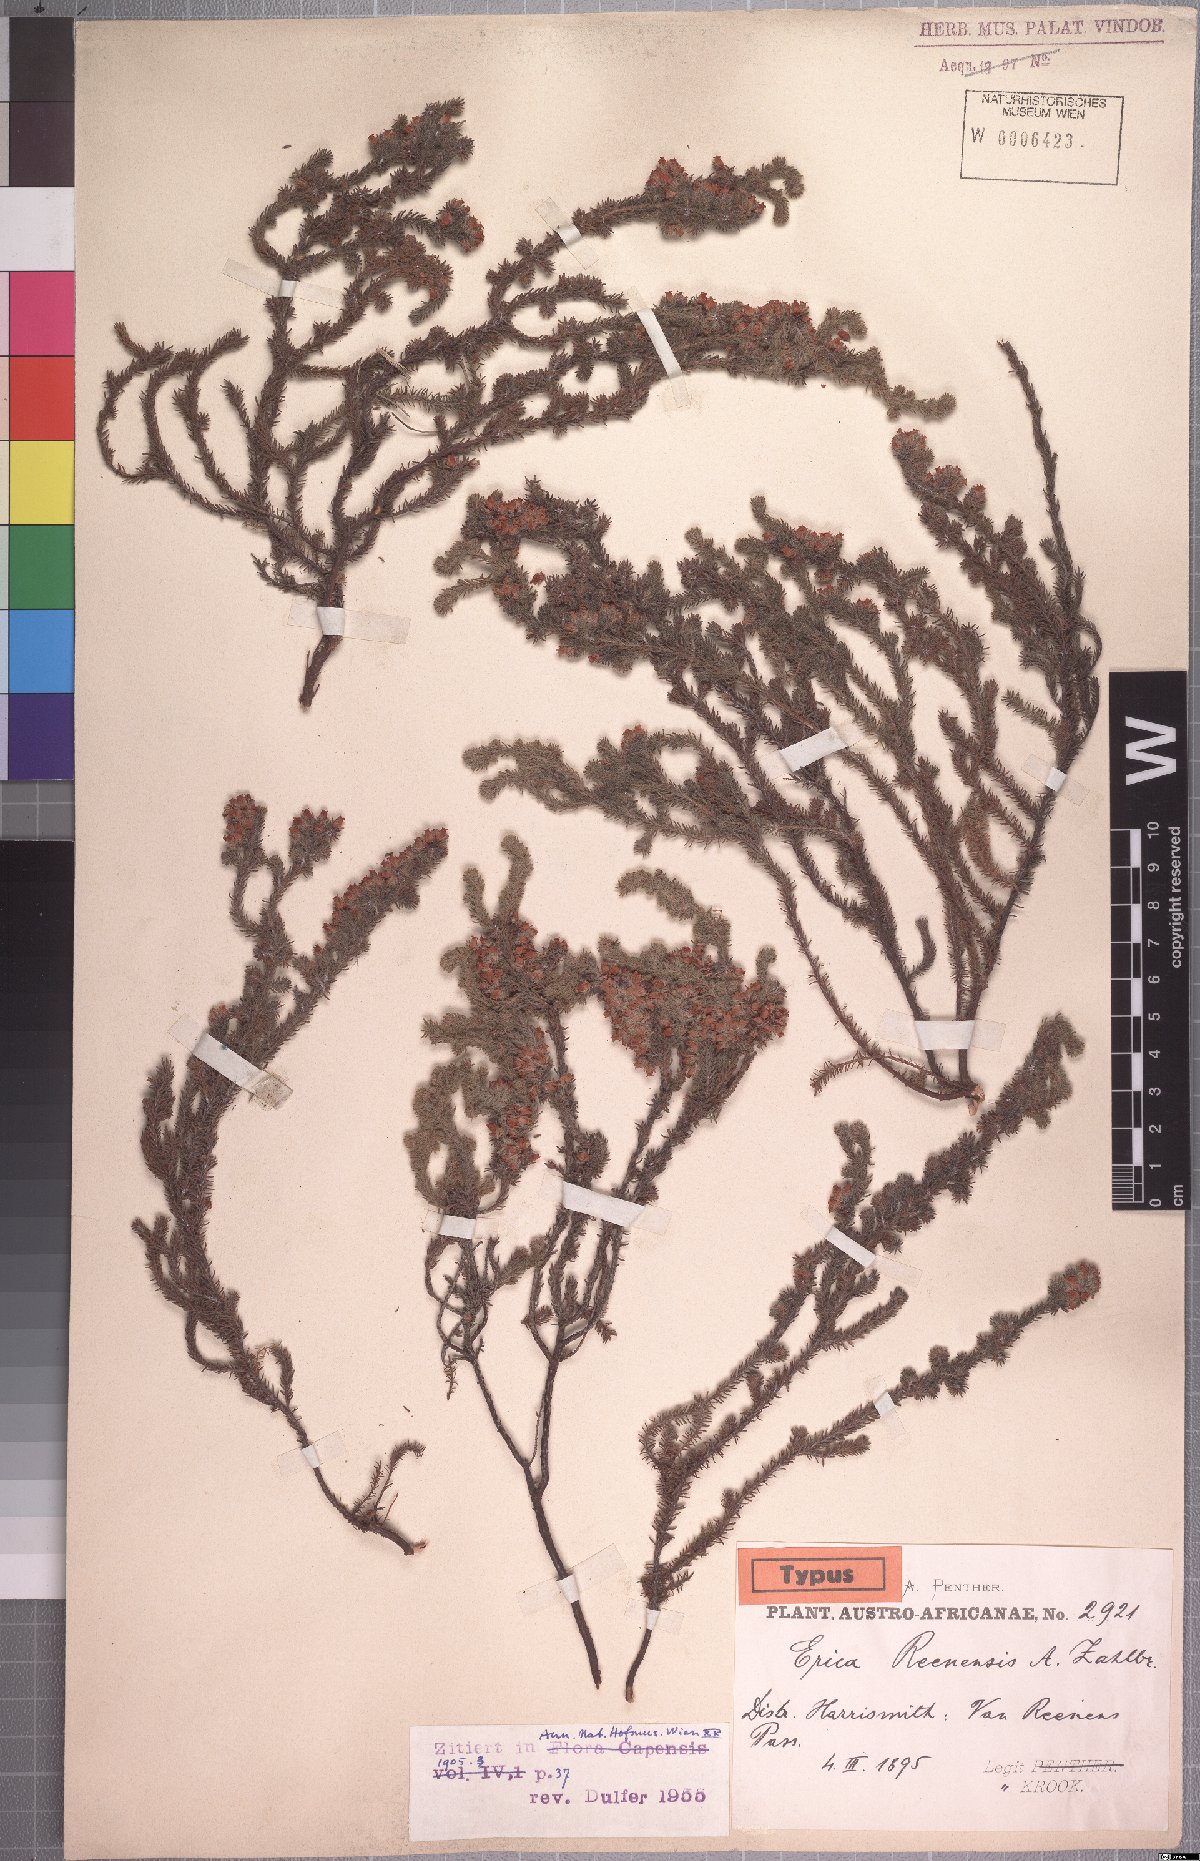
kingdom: Plantae
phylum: Tracheophyta
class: Magnoliopsida
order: Ericales
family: Ericaceae
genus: Erica
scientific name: Erica reenensis
